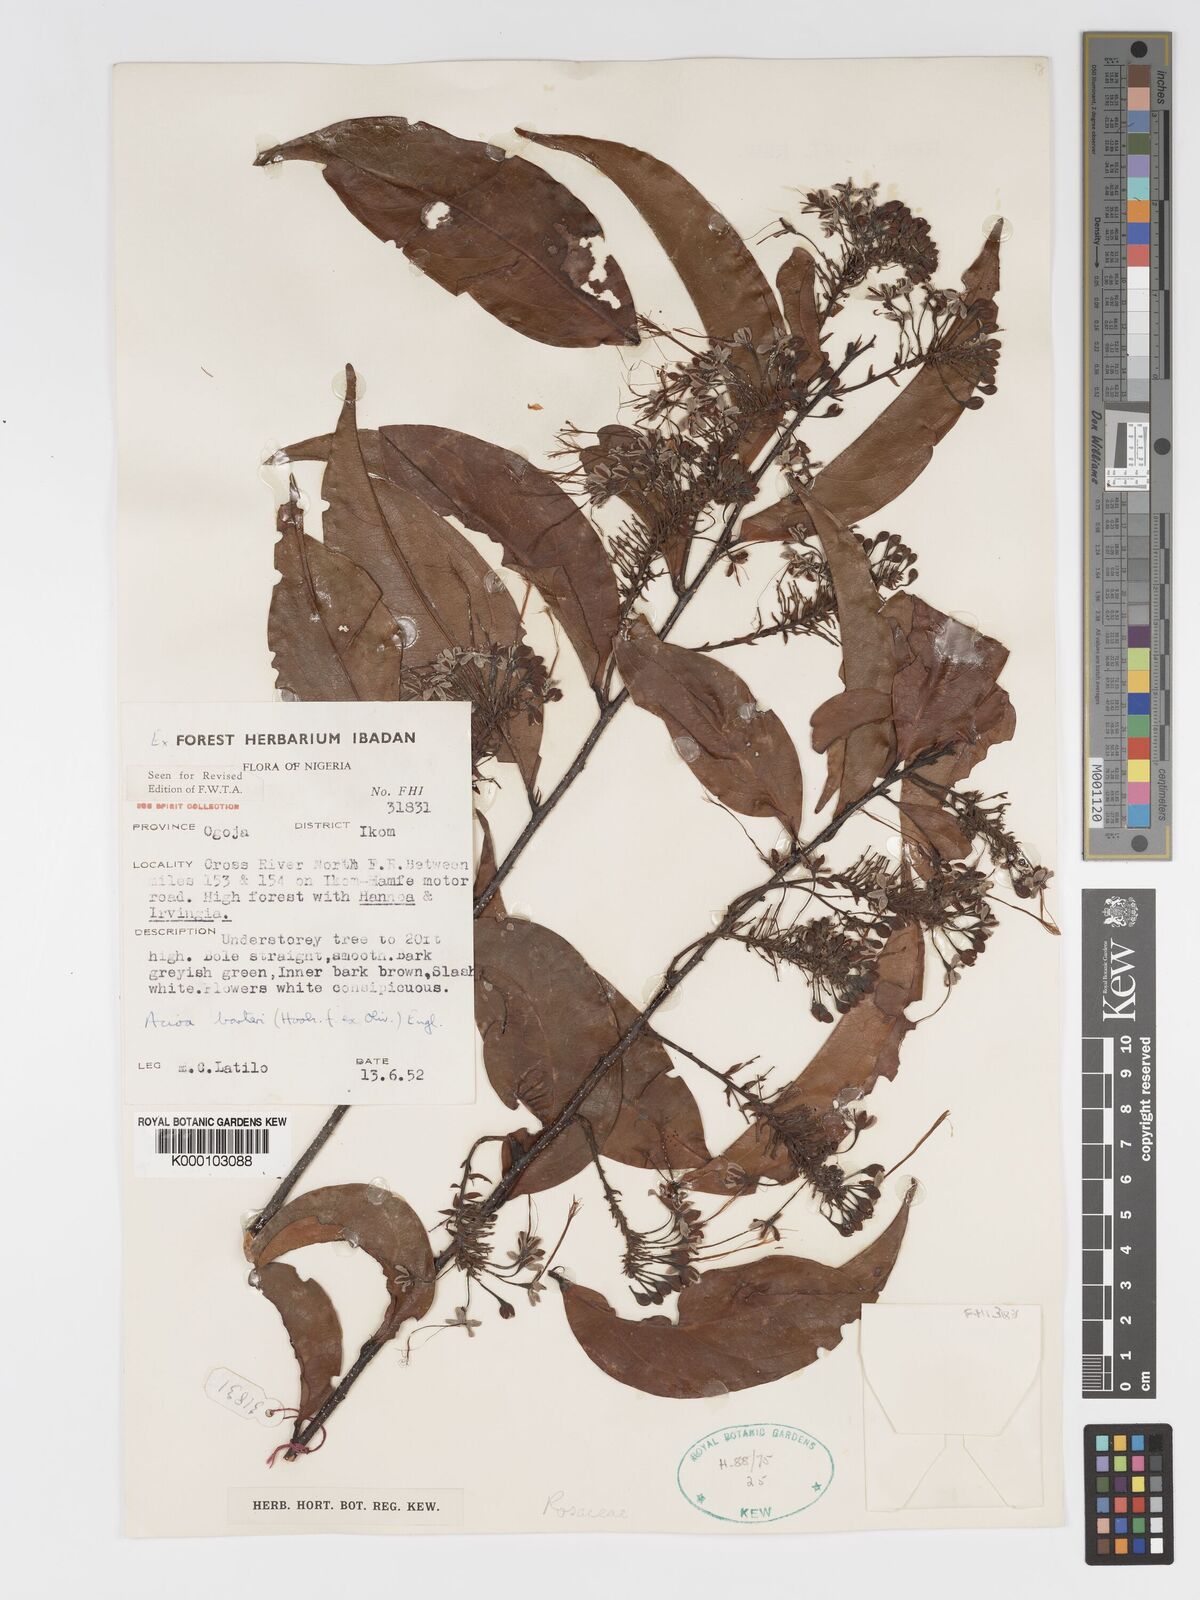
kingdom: Plantae
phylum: Tracheophyta
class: Magnoliopsida
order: Malpighiales
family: Chrysobalanaceae
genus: Dactyladenia
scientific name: Dactyladenia barteri
